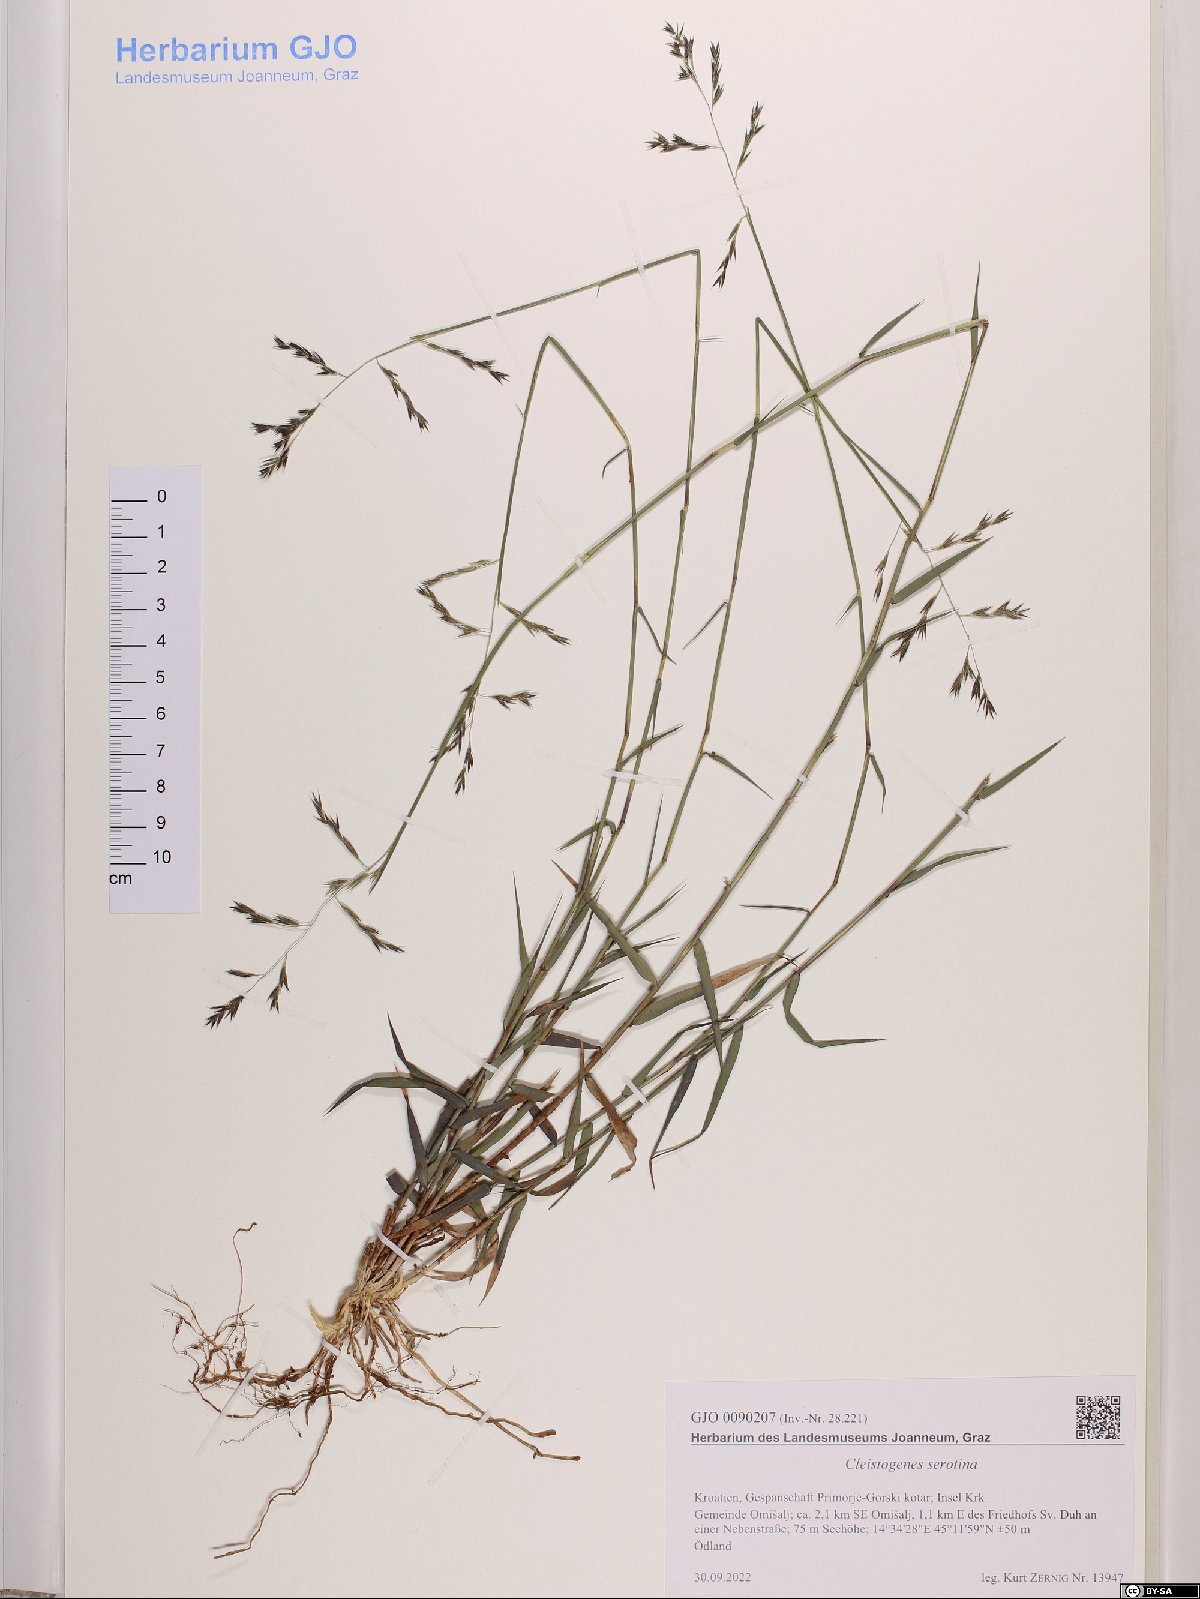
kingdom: Plantae
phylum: Tracheophyta
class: Liliopsida
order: Poales
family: Poaceae
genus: Cleistogenes
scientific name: Cleistogenes serotina
